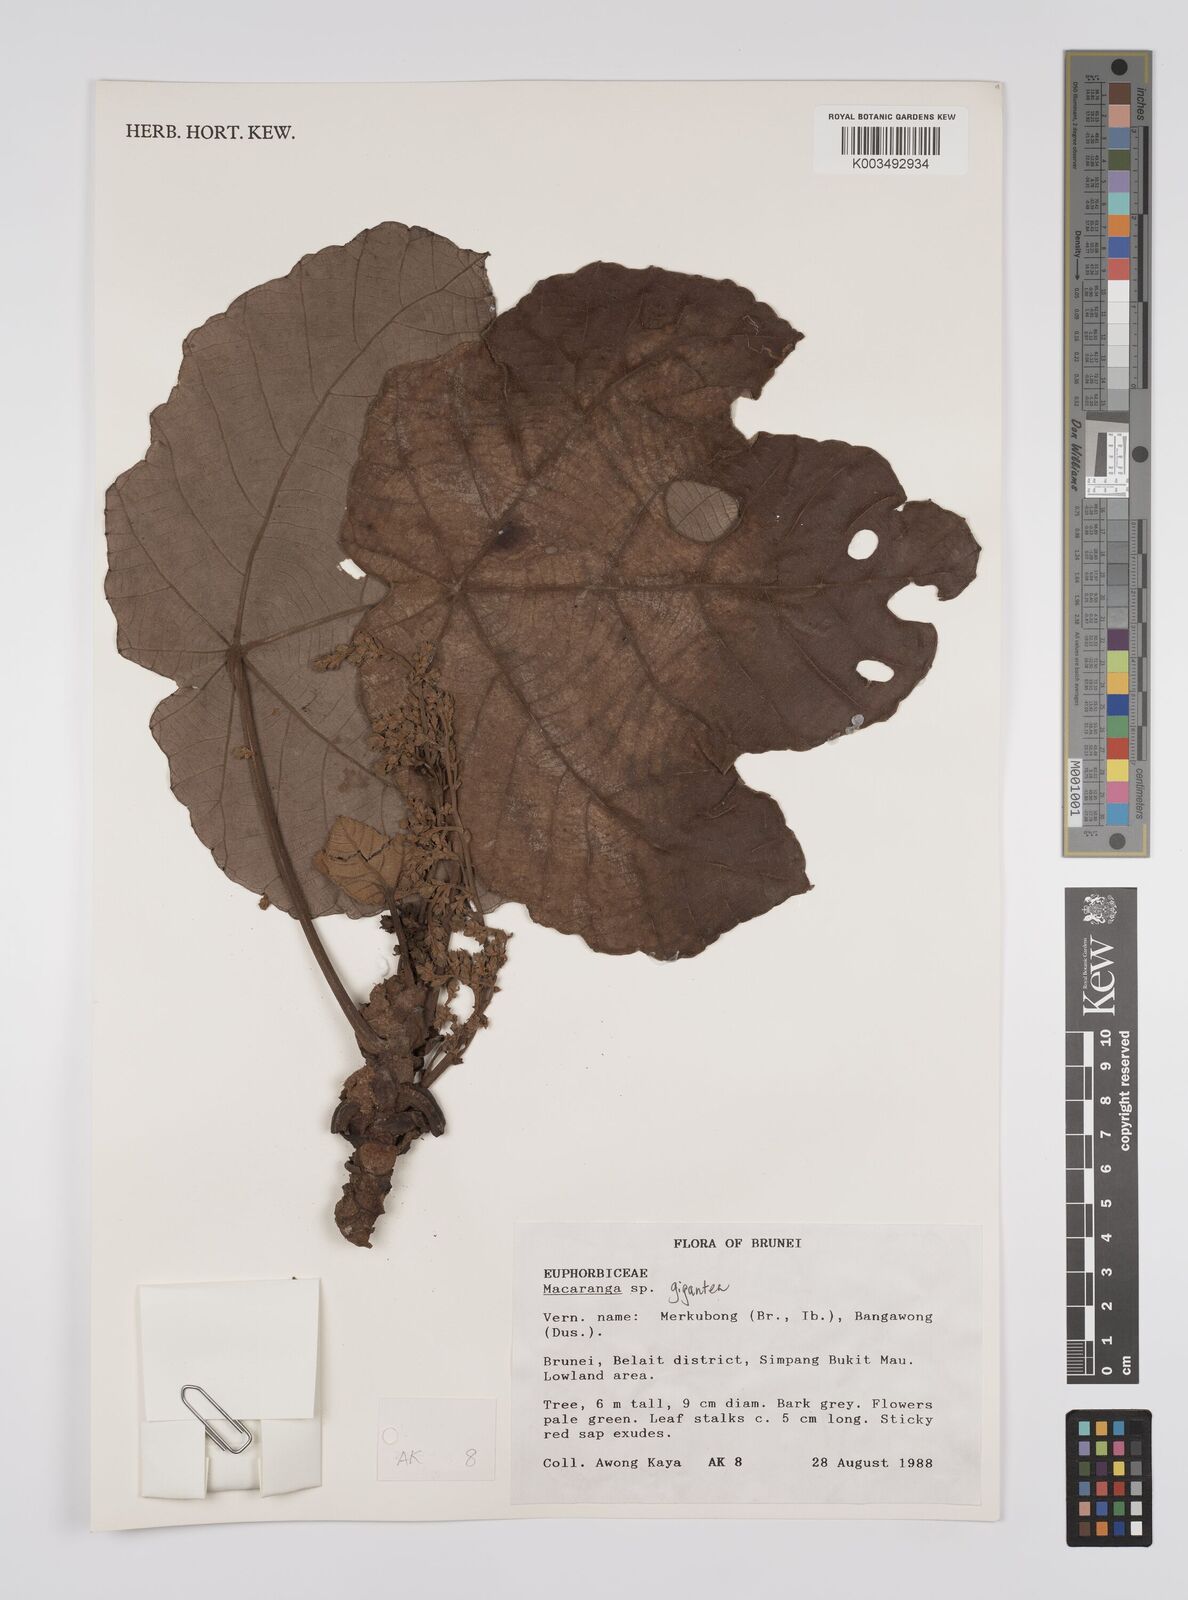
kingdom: Plantae
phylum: Tracheophyta
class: Magnoliopsida
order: Malpighiales
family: Euphorbiaceae
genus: Macaranga
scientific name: Macaranga gigantea
